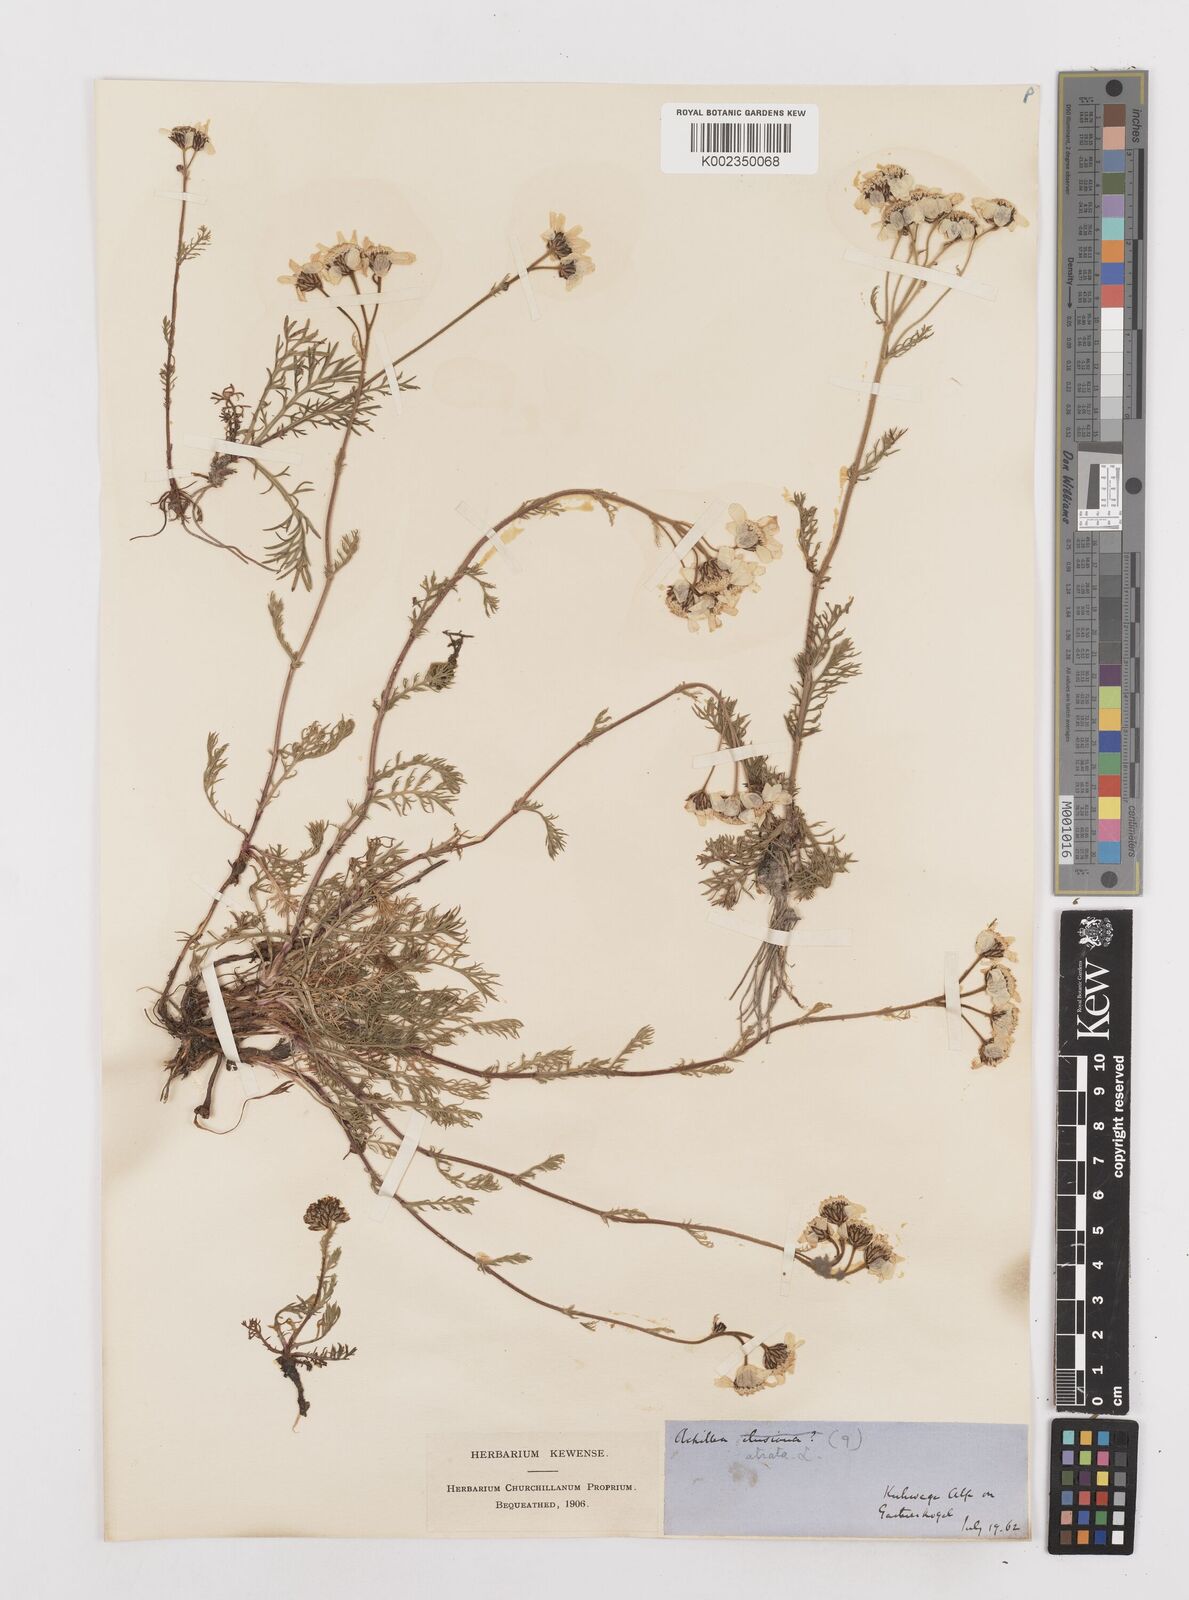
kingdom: Plantae
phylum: Tracheophyta
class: Magnoliopsida
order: Asterales
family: Asteraceae
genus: Achillea
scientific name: Achillea atrata
